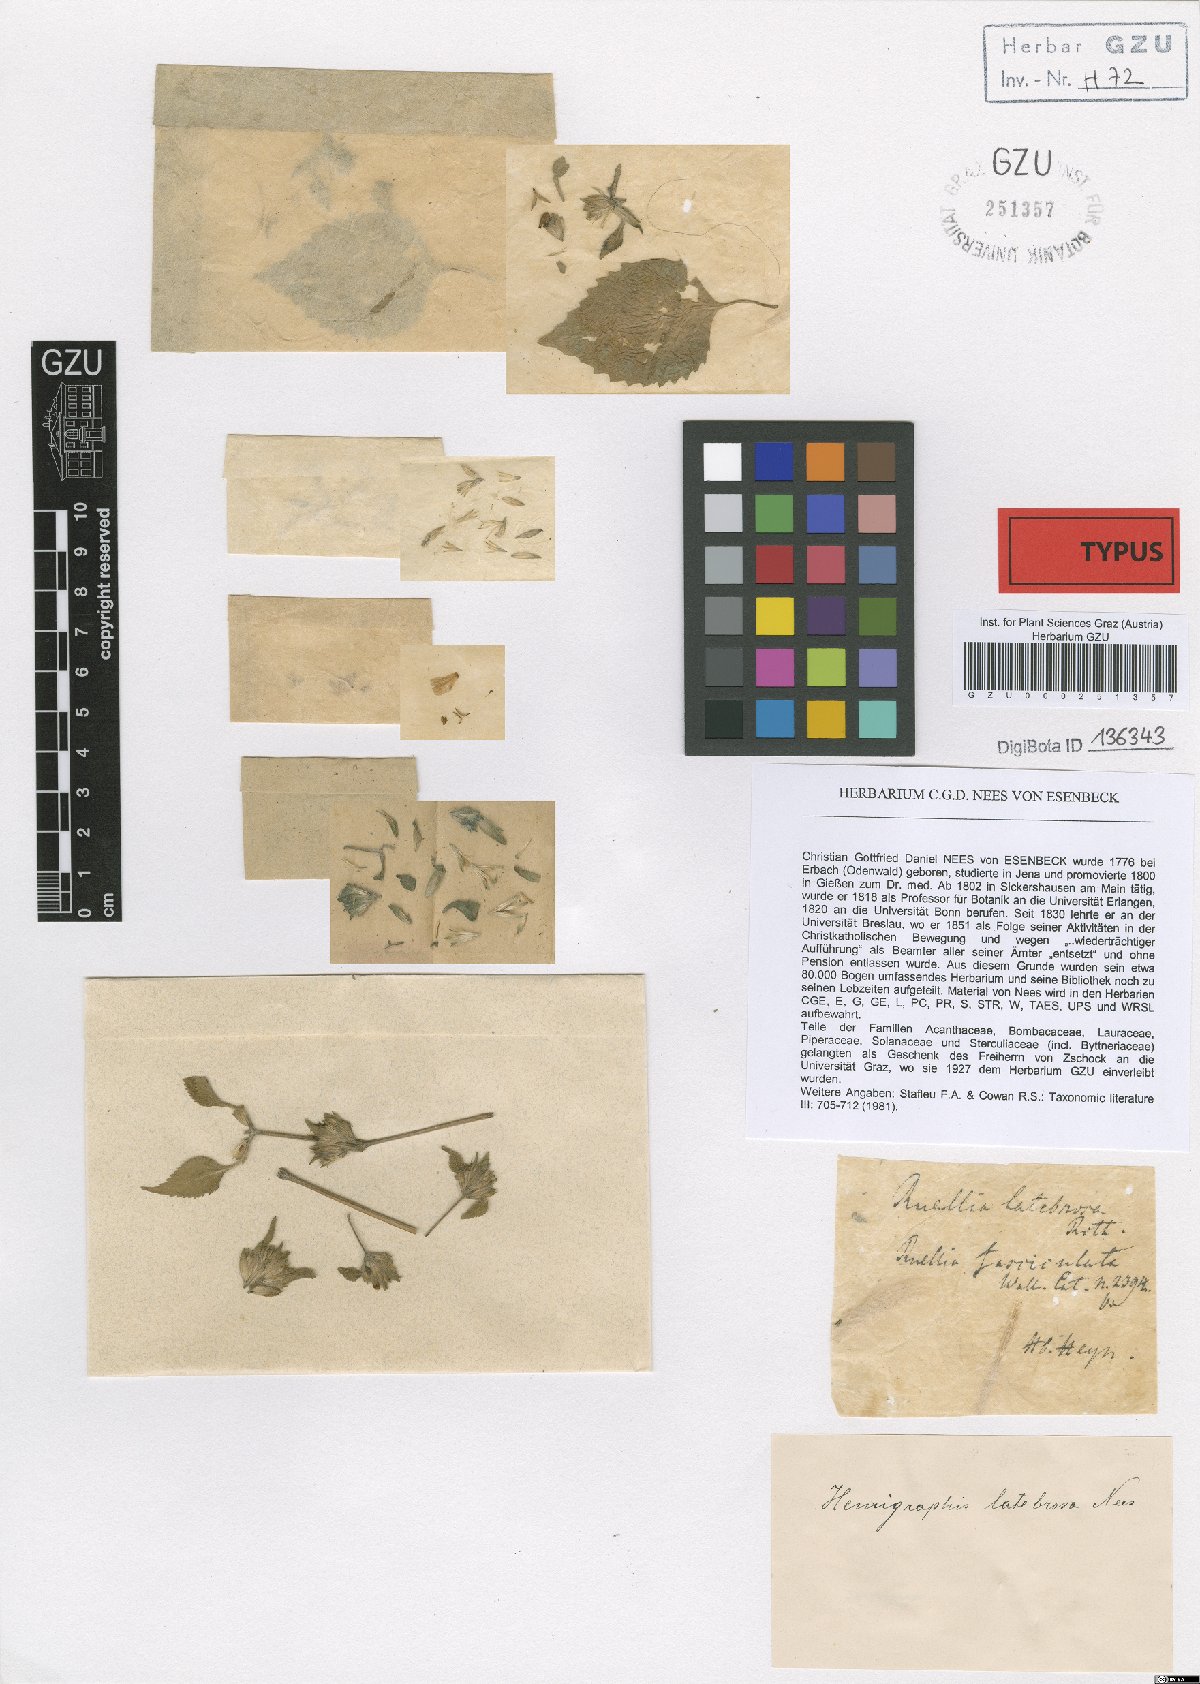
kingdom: Plantae
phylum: Tracheophyta
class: Magnoliopsida
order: Lamiales
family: Acanthaceae
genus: Strobilanthes
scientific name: Strobilanthes pavala
